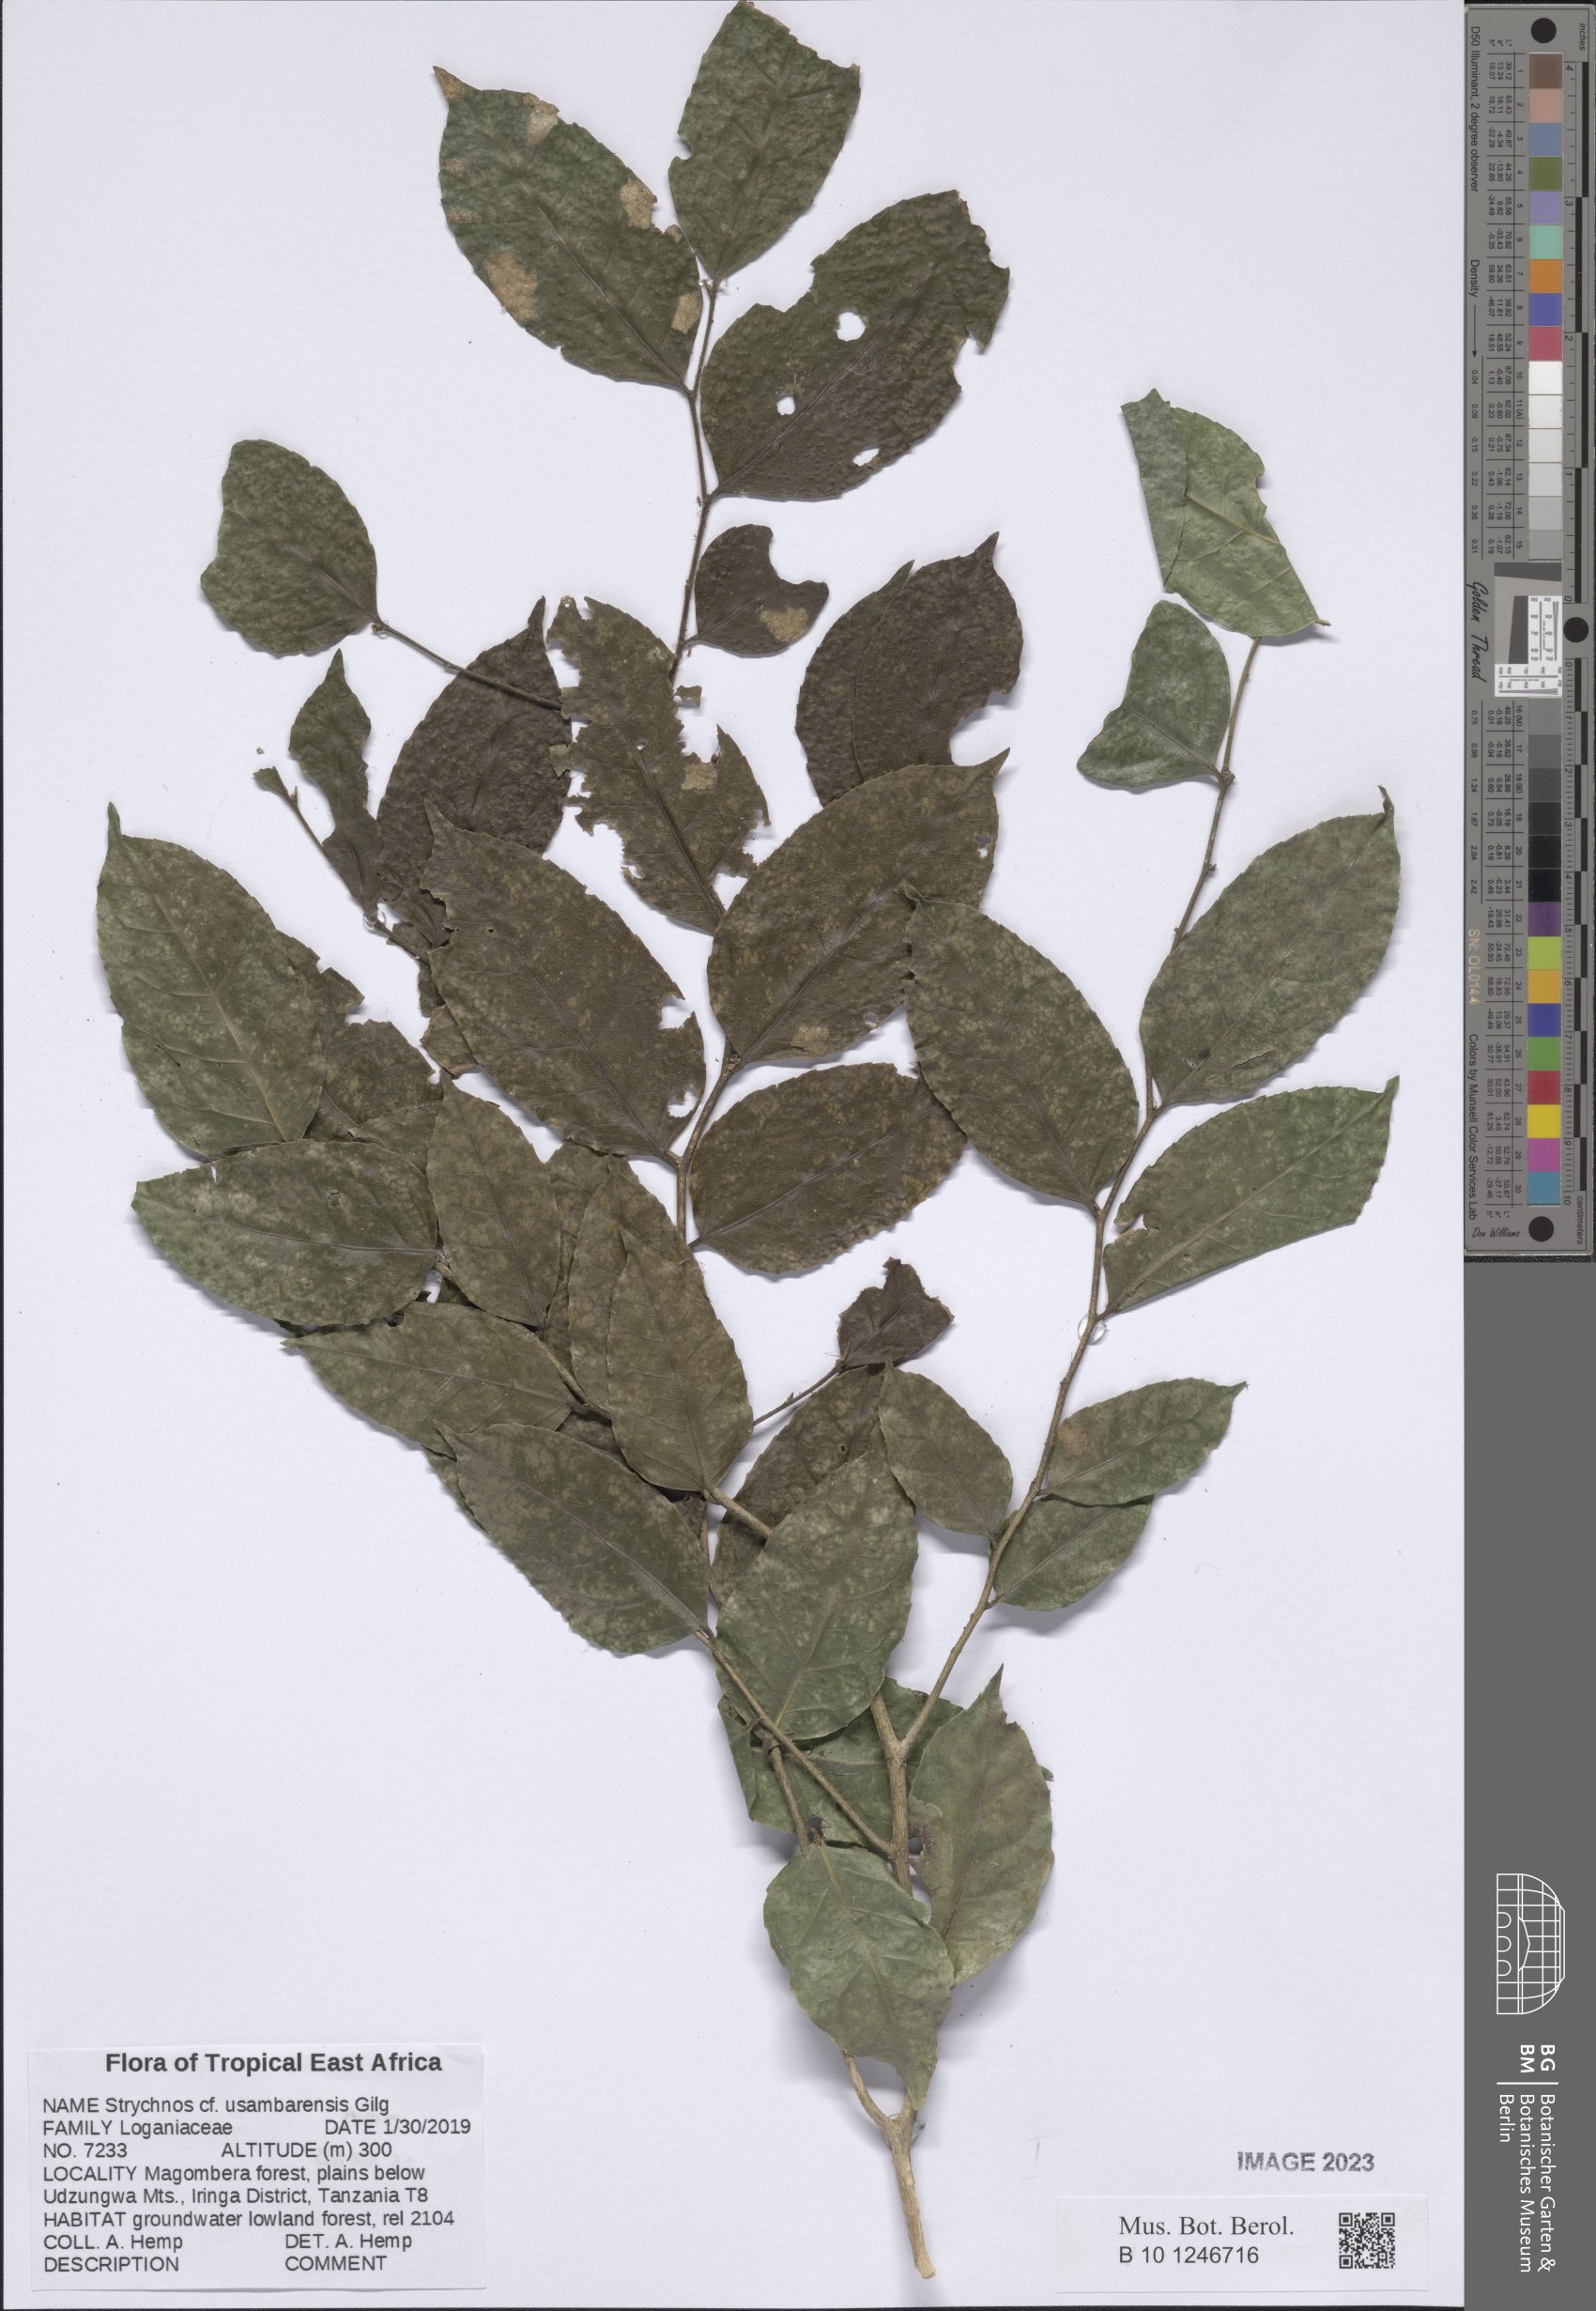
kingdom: Plantae
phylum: Tracheophyta
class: Magnoliopsida
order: Gentianales
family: Loganiaceae
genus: Strychnos
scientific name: Strychnos usambarensis
